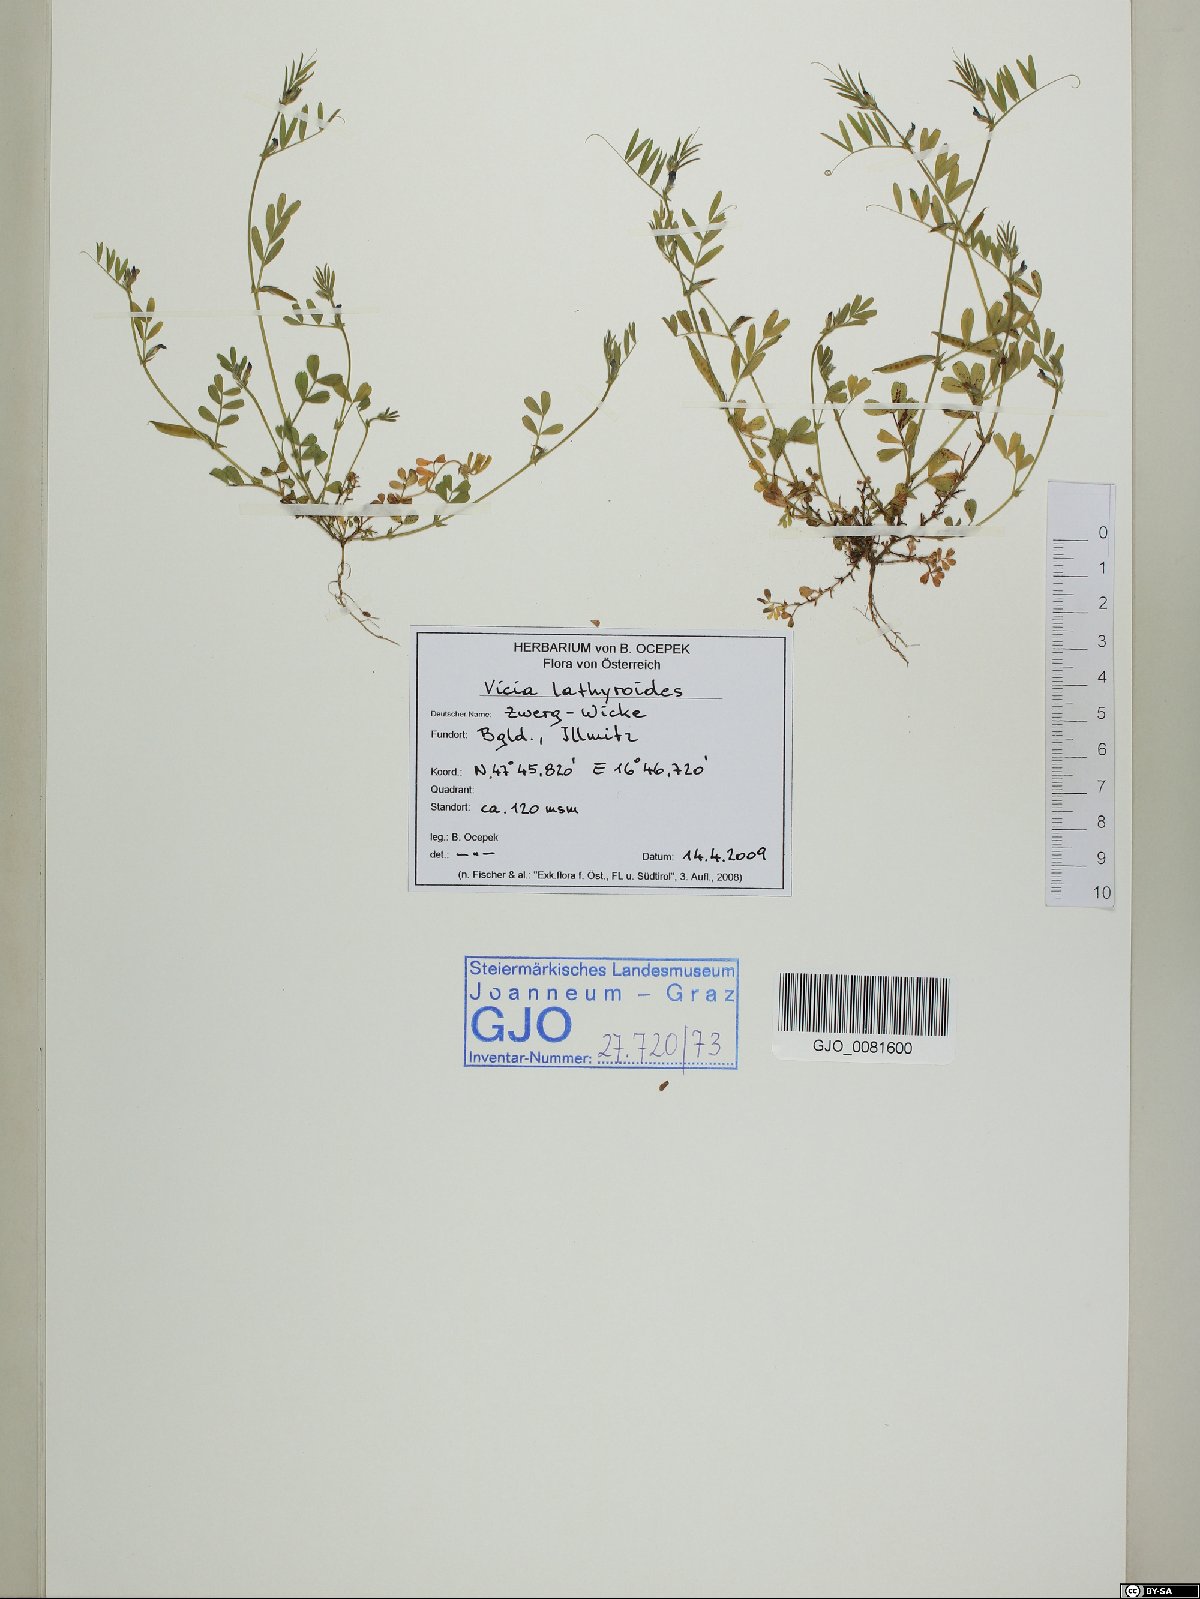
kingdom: Plantae
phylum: Tracheophyta
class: Magnoliopsida
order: Fabales
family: Fabaceae
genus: Vicia
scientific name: Vicia lathyroides
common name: Spring vetch
